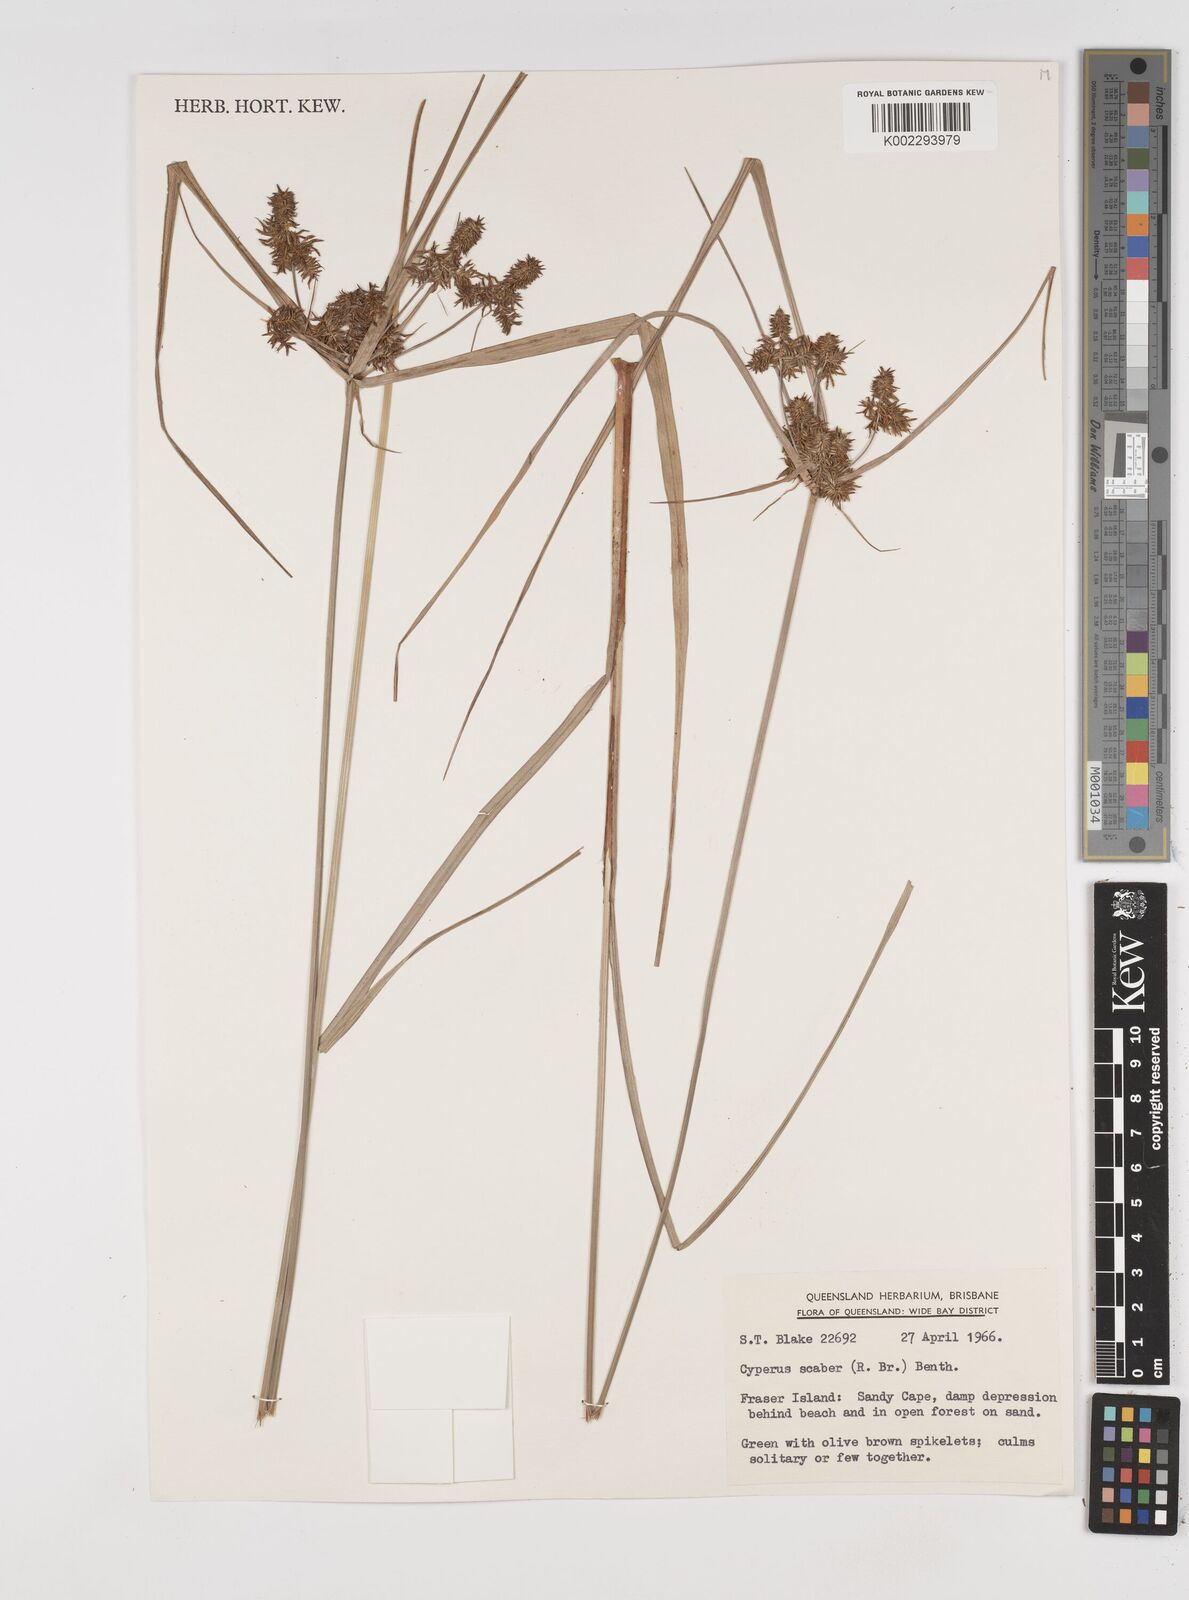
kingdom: Plantae
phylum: Tracheophyta
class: Liliopsida
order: Poales
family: Cyperaceae
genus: Cyperus
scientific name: Cyperus scaber
